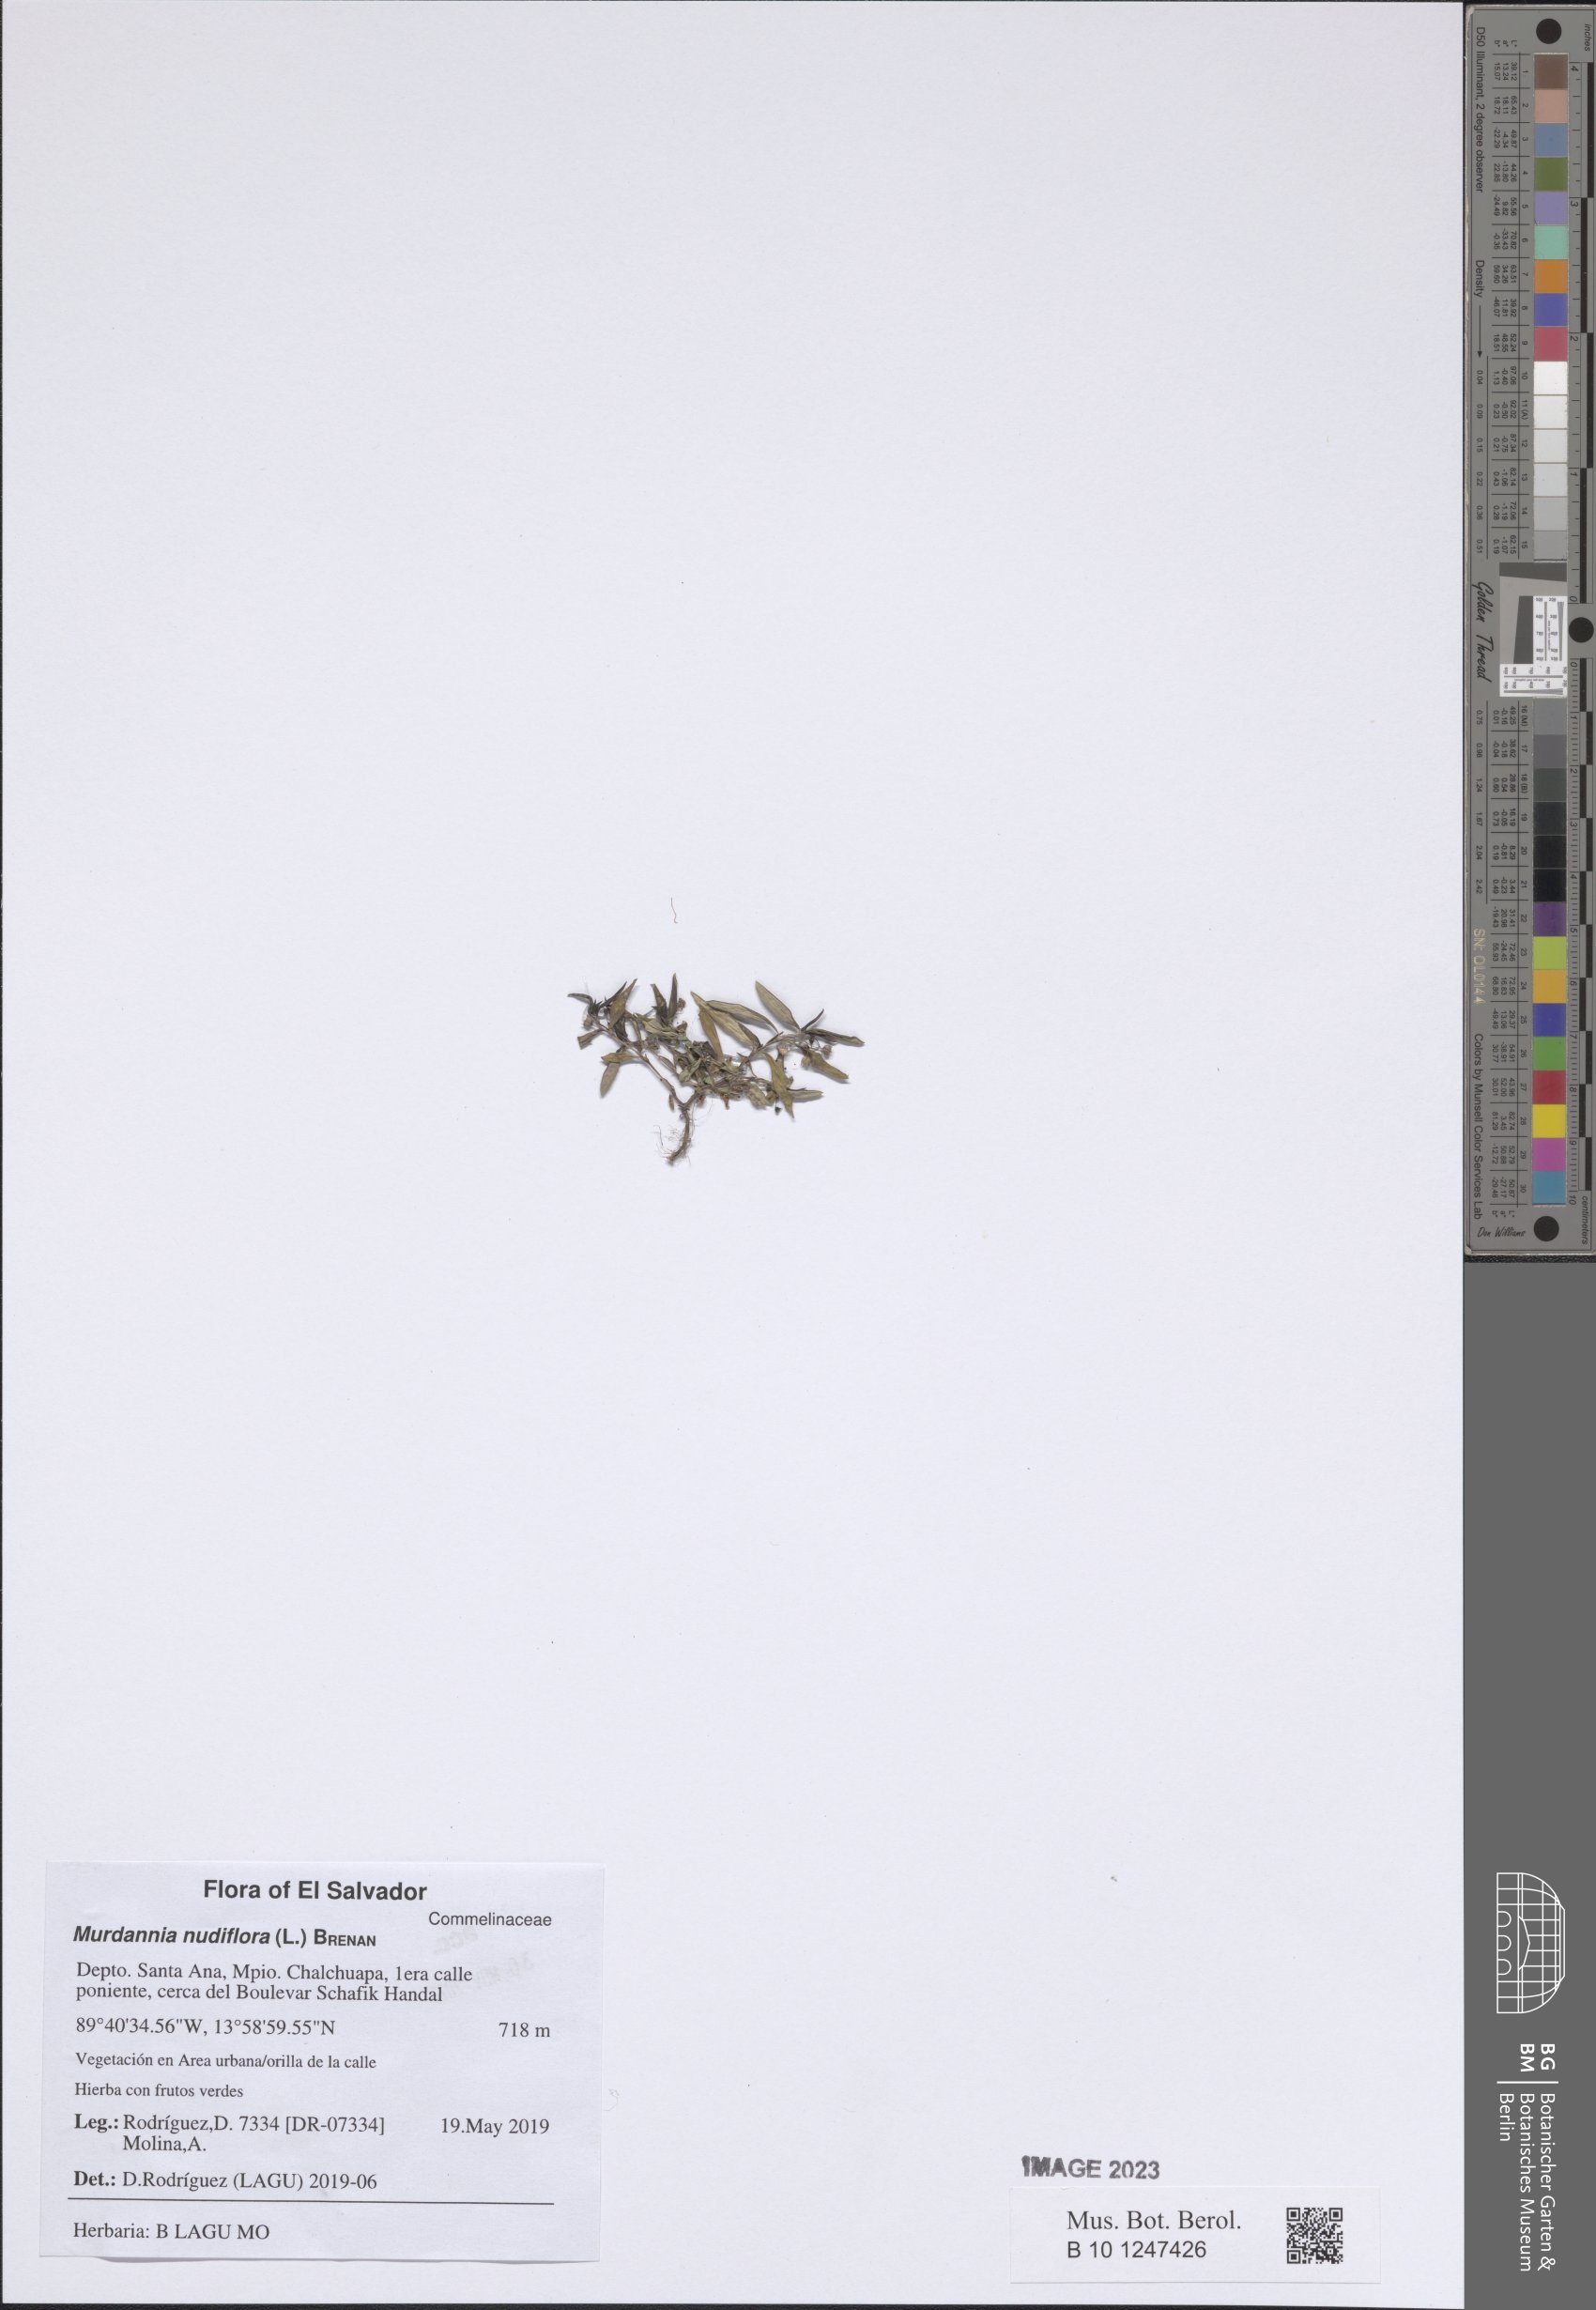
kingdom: Plantae
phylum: Tracheophyta
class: Liliopsida
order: Commelinales
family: Commelinaceae
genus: Murdannia
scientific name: Murdannia nudiflora
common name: Nakedstem dewflower
